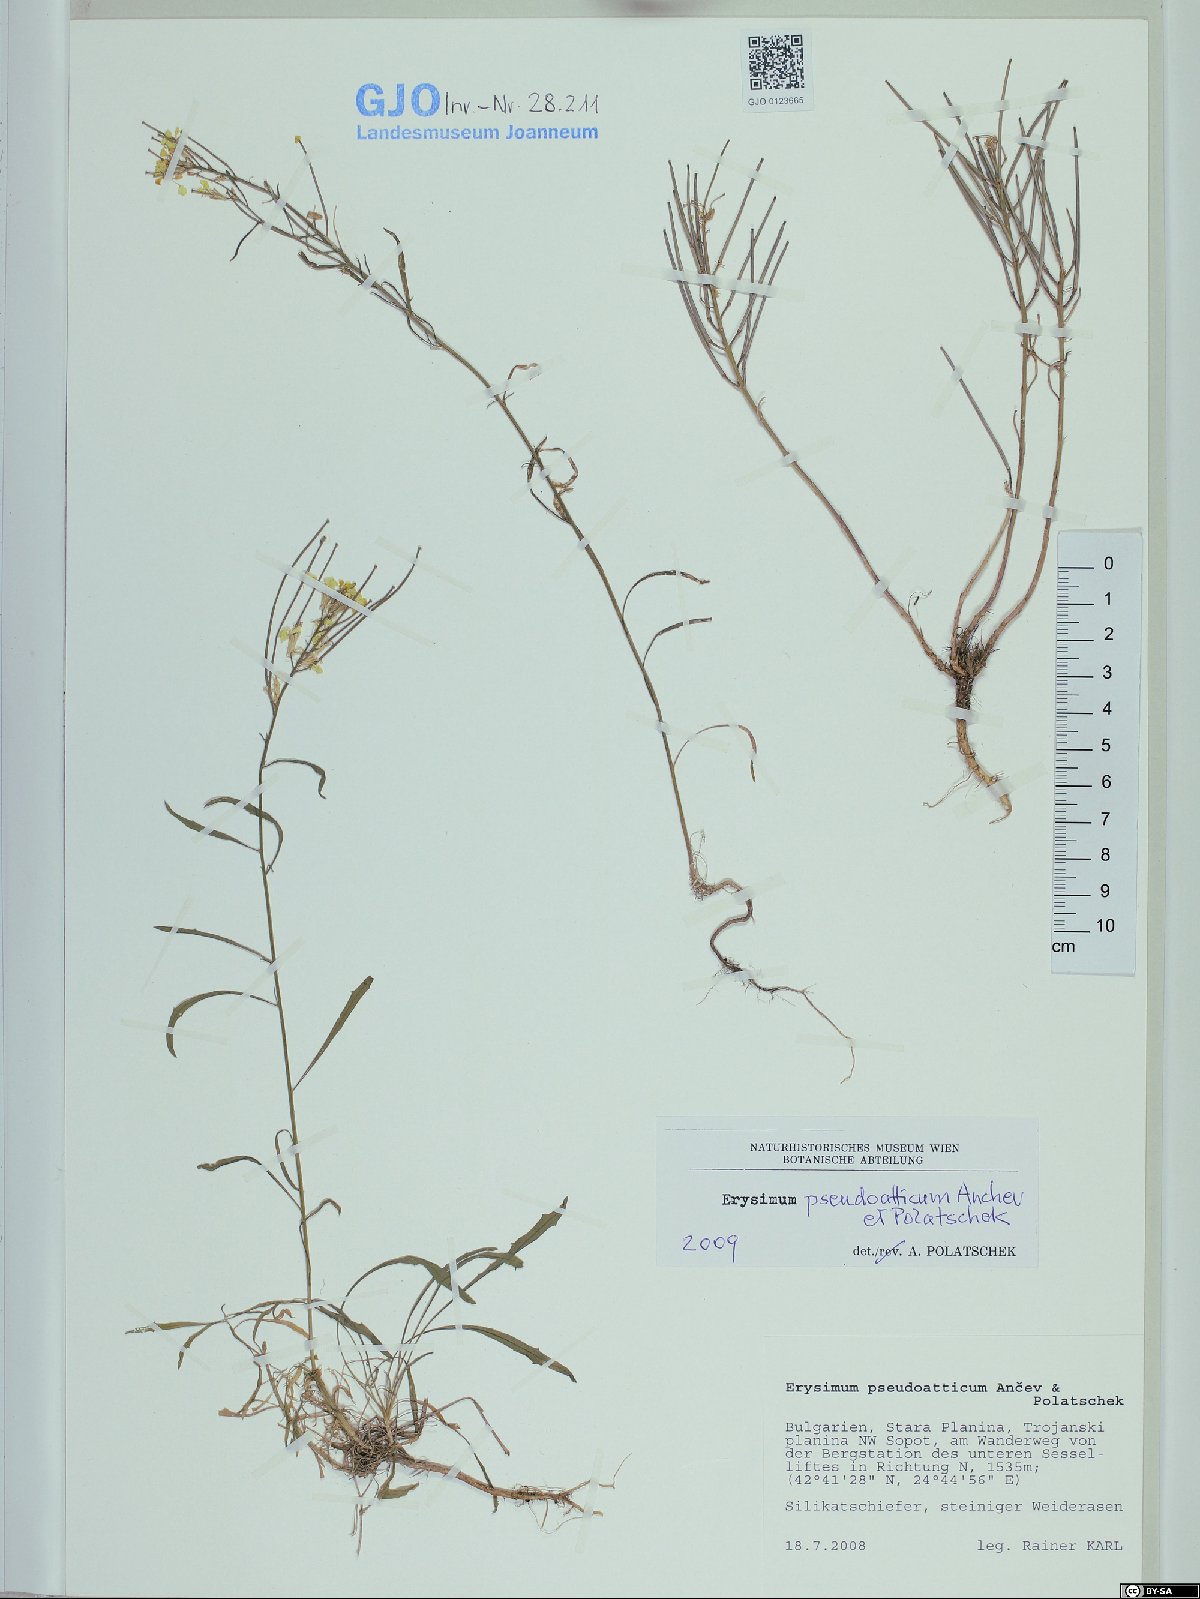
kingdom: Plantae
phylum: Tracheophyta
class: Magnoliopsida
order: Brassicales
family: Brassicaceae
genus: Erysimum
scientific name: Erysimum pseudoatticum
